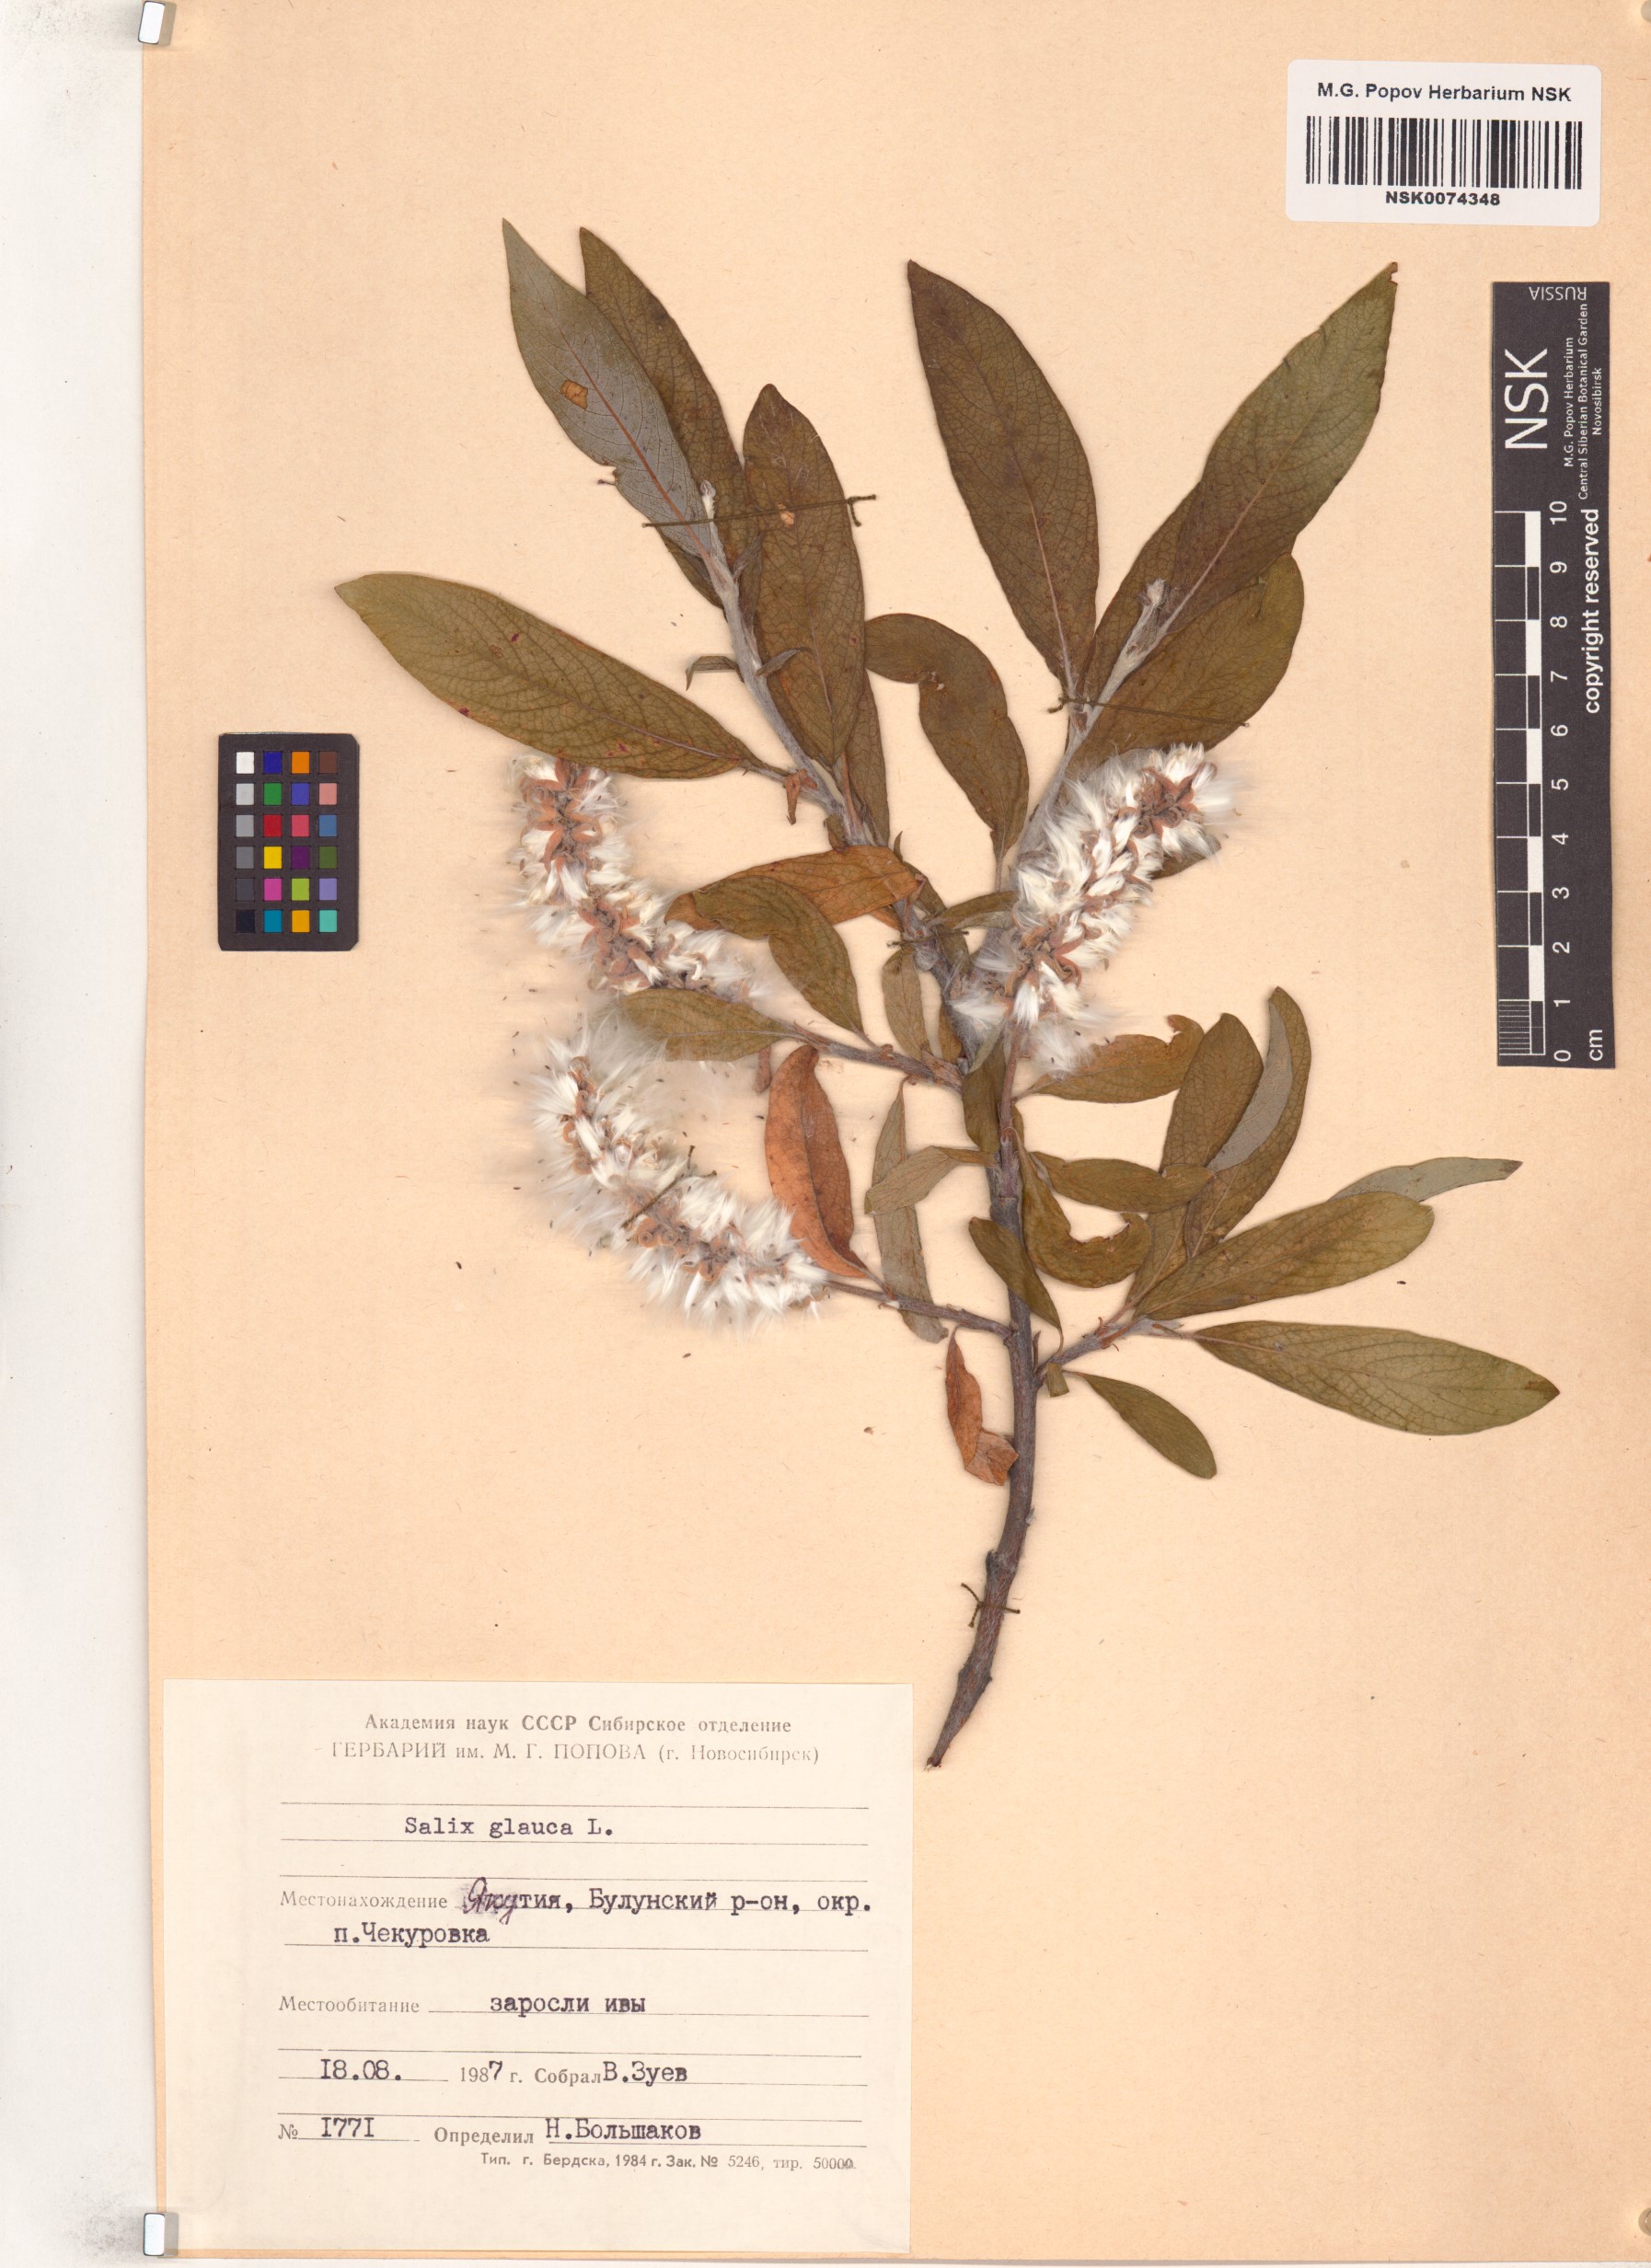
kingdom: Plantae
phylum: Tracheophyta
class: Magnoliopsida
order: Malpighiales
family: Salicaceae
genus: Salix
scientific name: Salix glauca
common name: Glaucous willow
